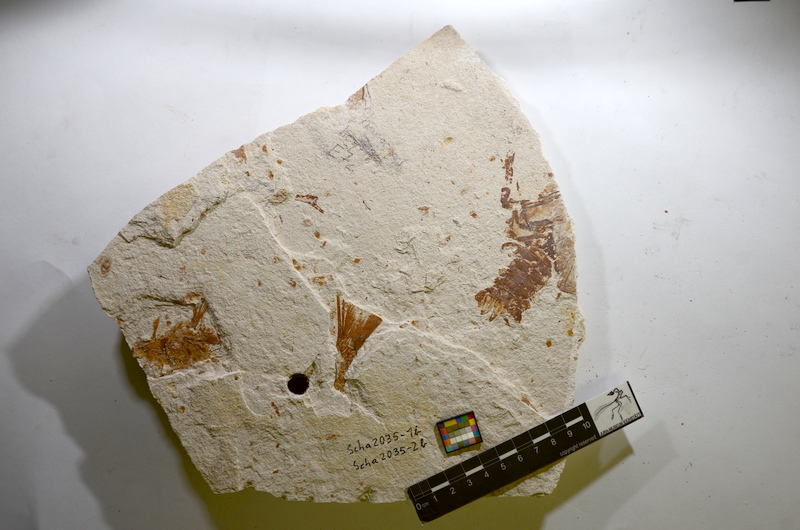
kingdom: Animalia
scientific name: Animalia
